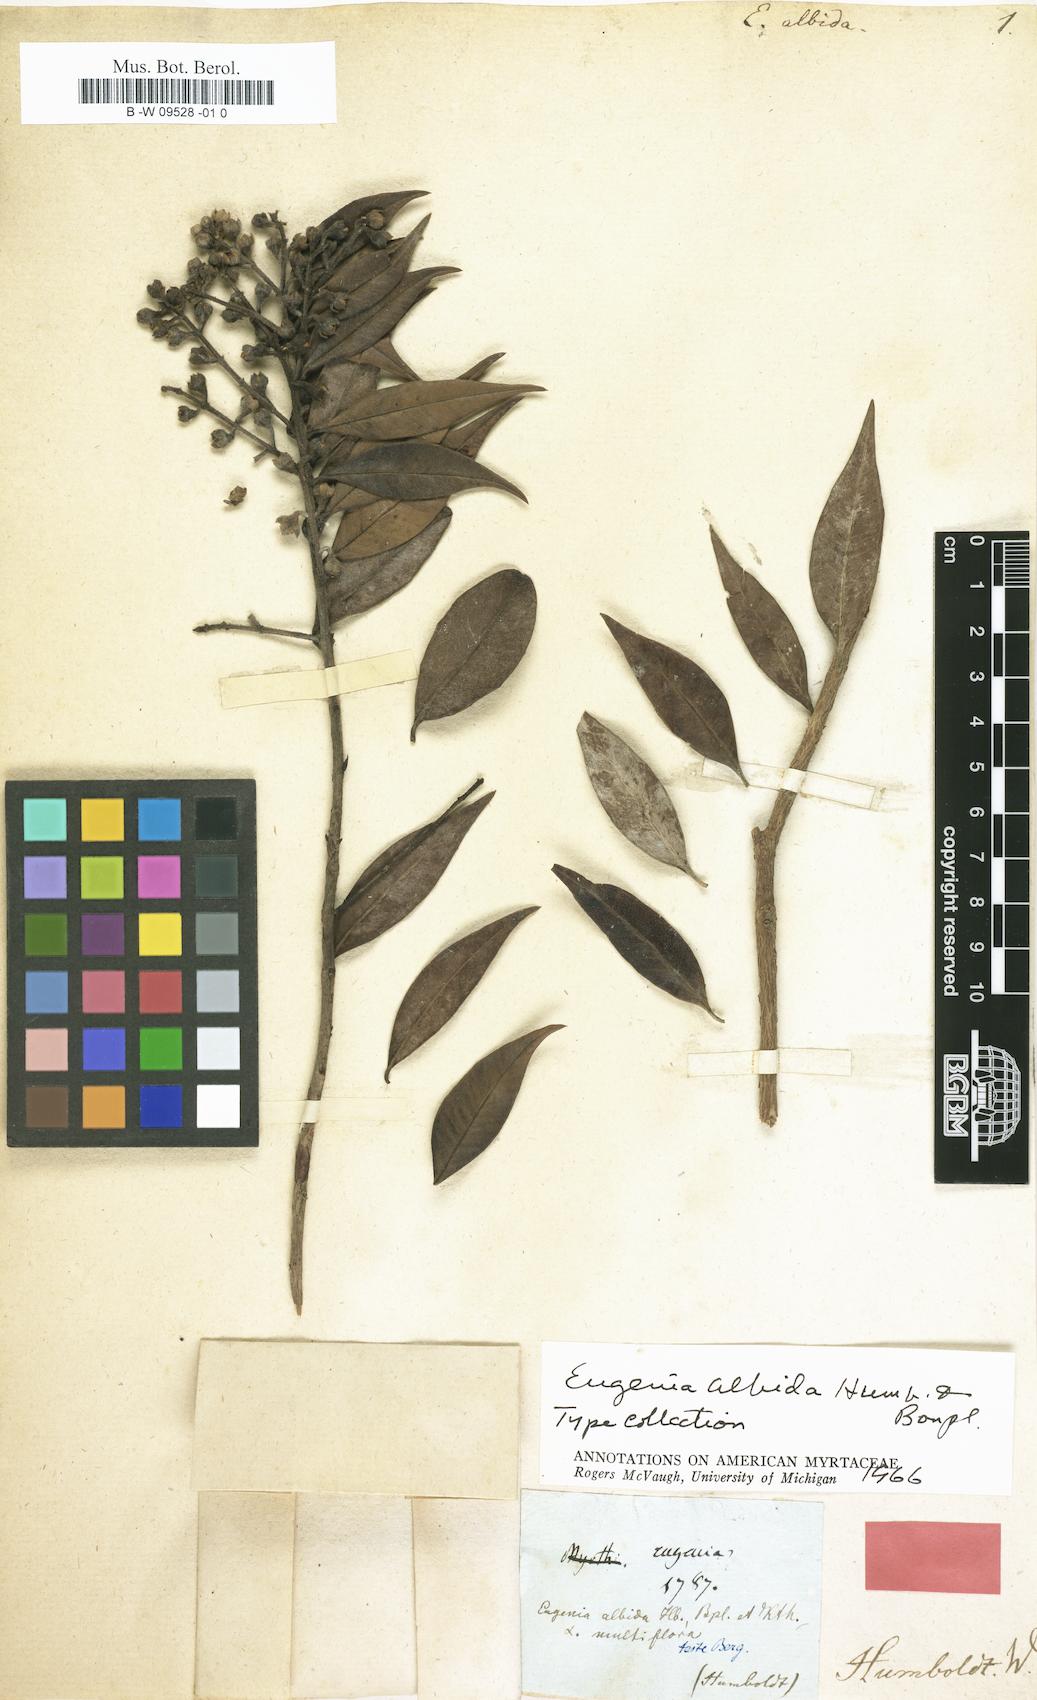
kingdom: Plantae
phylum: Tracheophyta
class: Magnoliopsida
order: Myrtales
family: Myrtaceae
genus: Eugenia
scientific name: Eugenia albida
